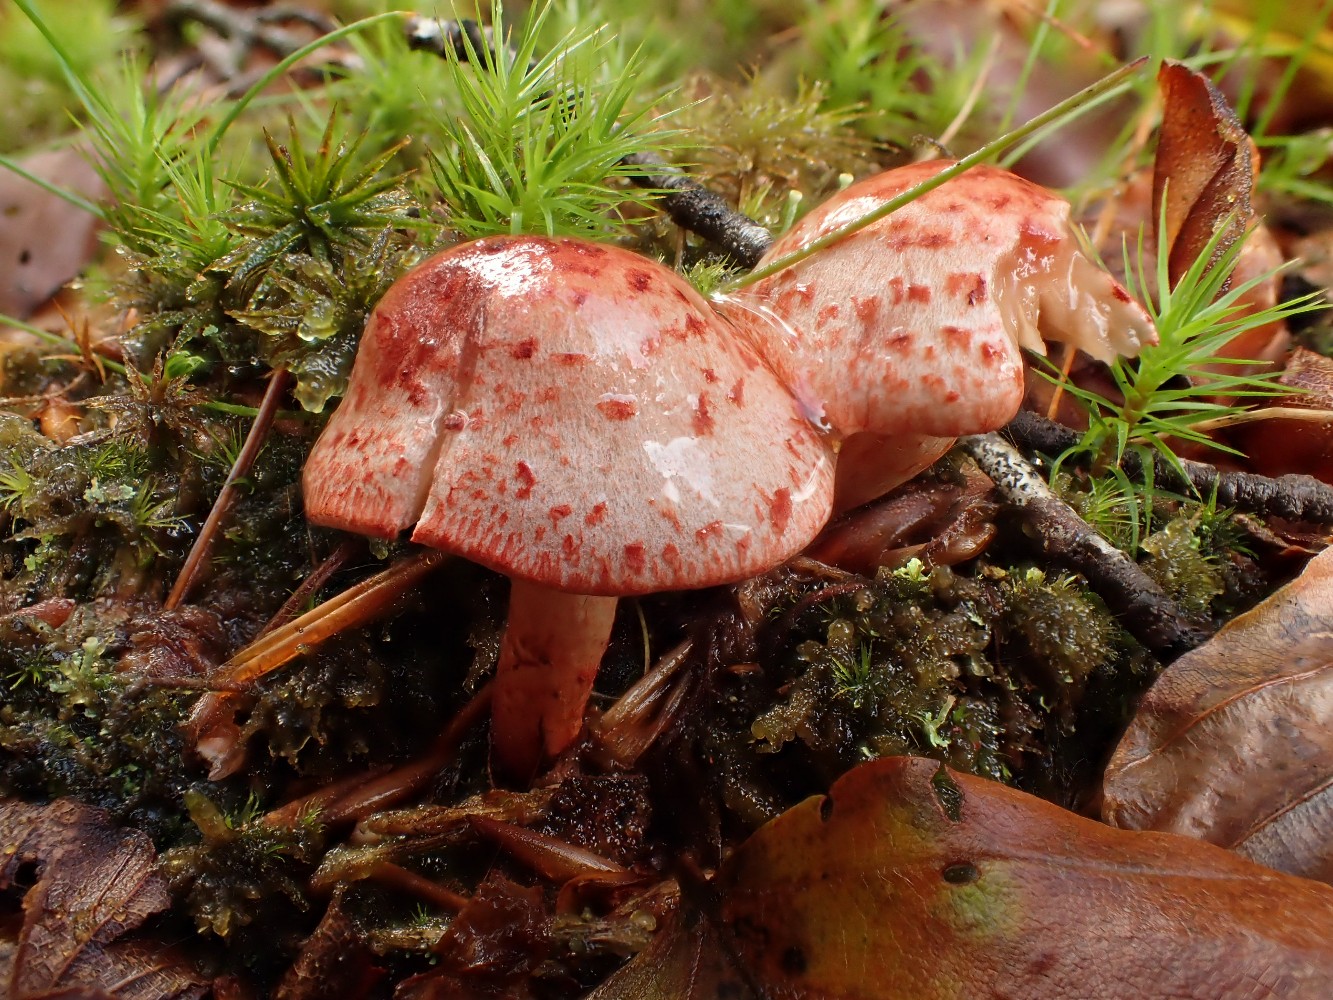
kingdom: Fungi
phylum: Basidiomycota
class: Agaricomycetes
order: Agaricales
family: Cortinariaceae
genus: Cortinarius
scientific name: Cortinarius bolaris
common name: cinnoberskællet slørhat
